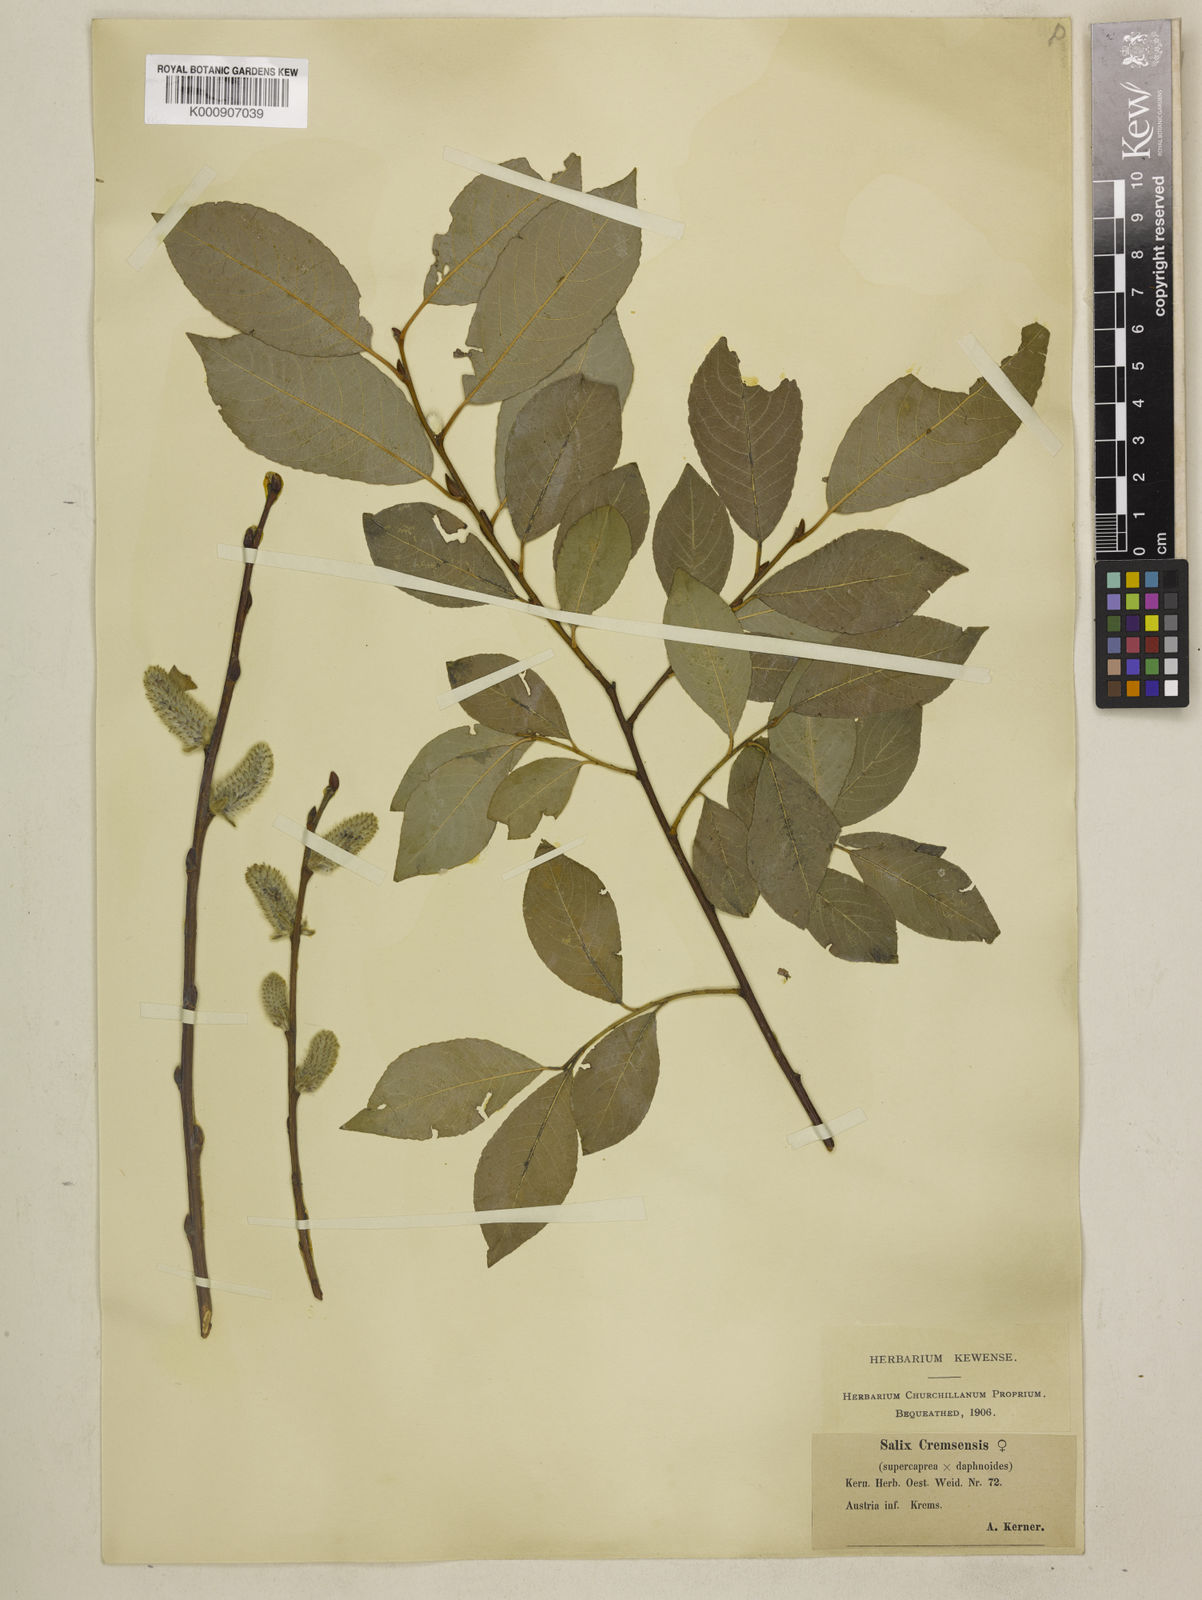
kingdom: Plantae
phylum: Tracheophyta
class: Magnoliopsida
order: Malpighiales
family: Salicaceae
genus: Salix
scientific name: Salix caprea
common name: Goat willow
